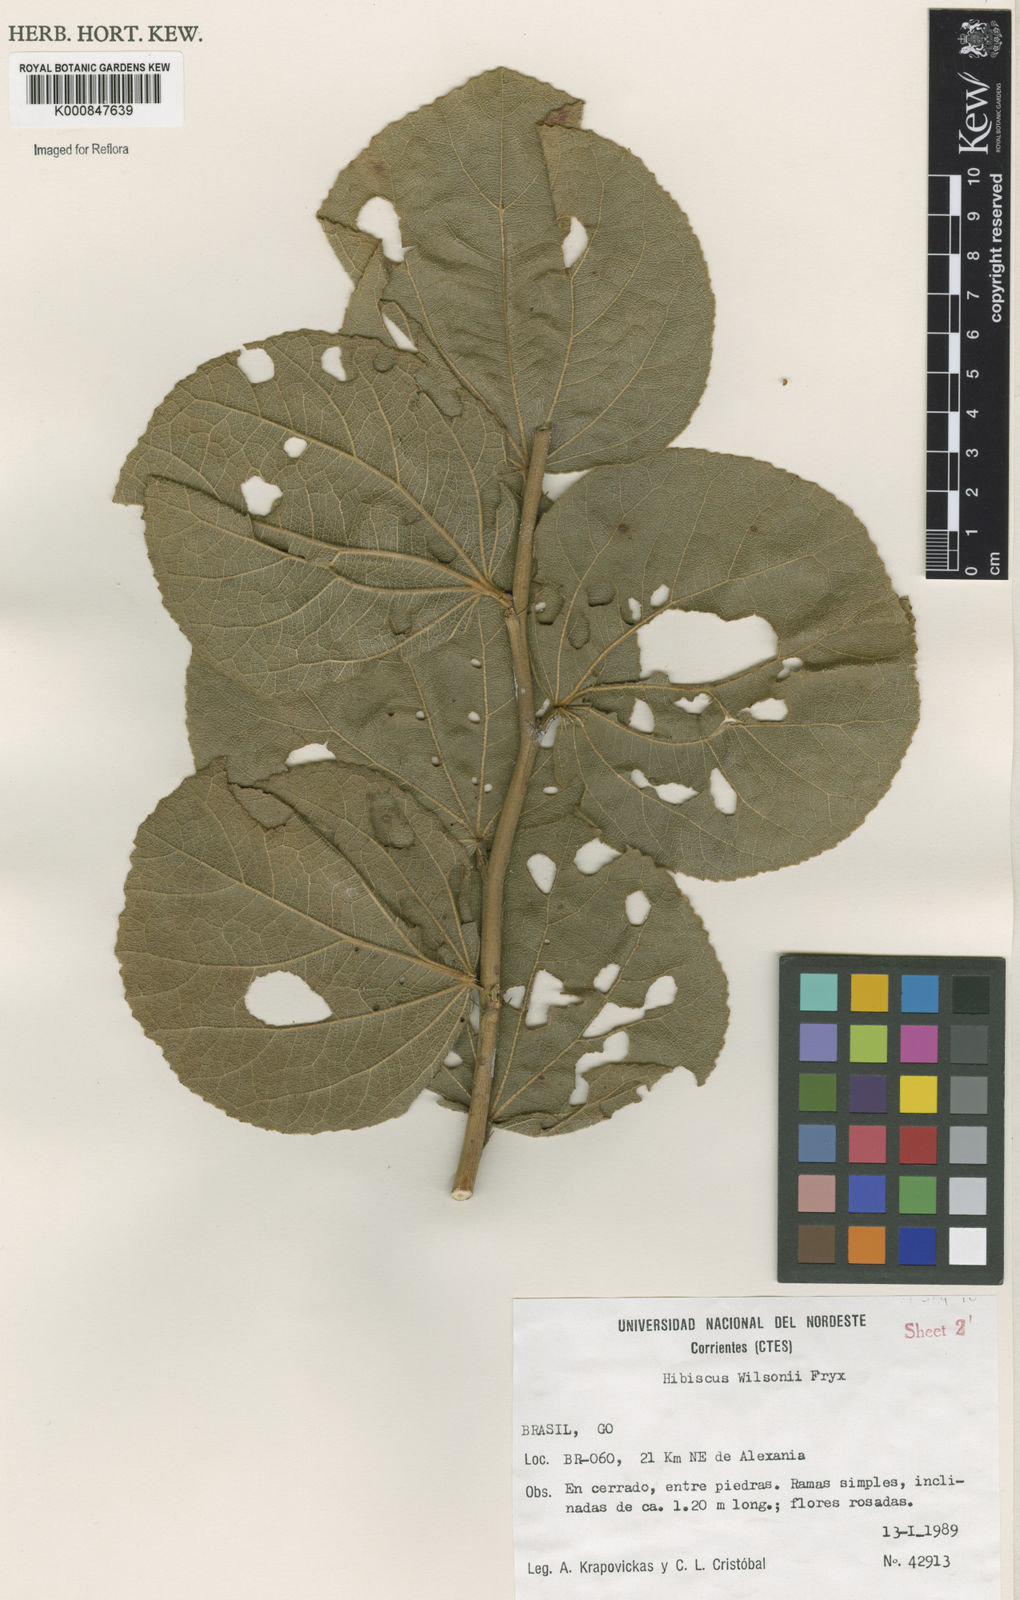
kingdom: Plantae
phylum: Tracheophyta
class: Magnoliopsida
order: Malvales
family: Malvaceae
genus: Hibiscus
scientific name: Hibiscus wilsonii
